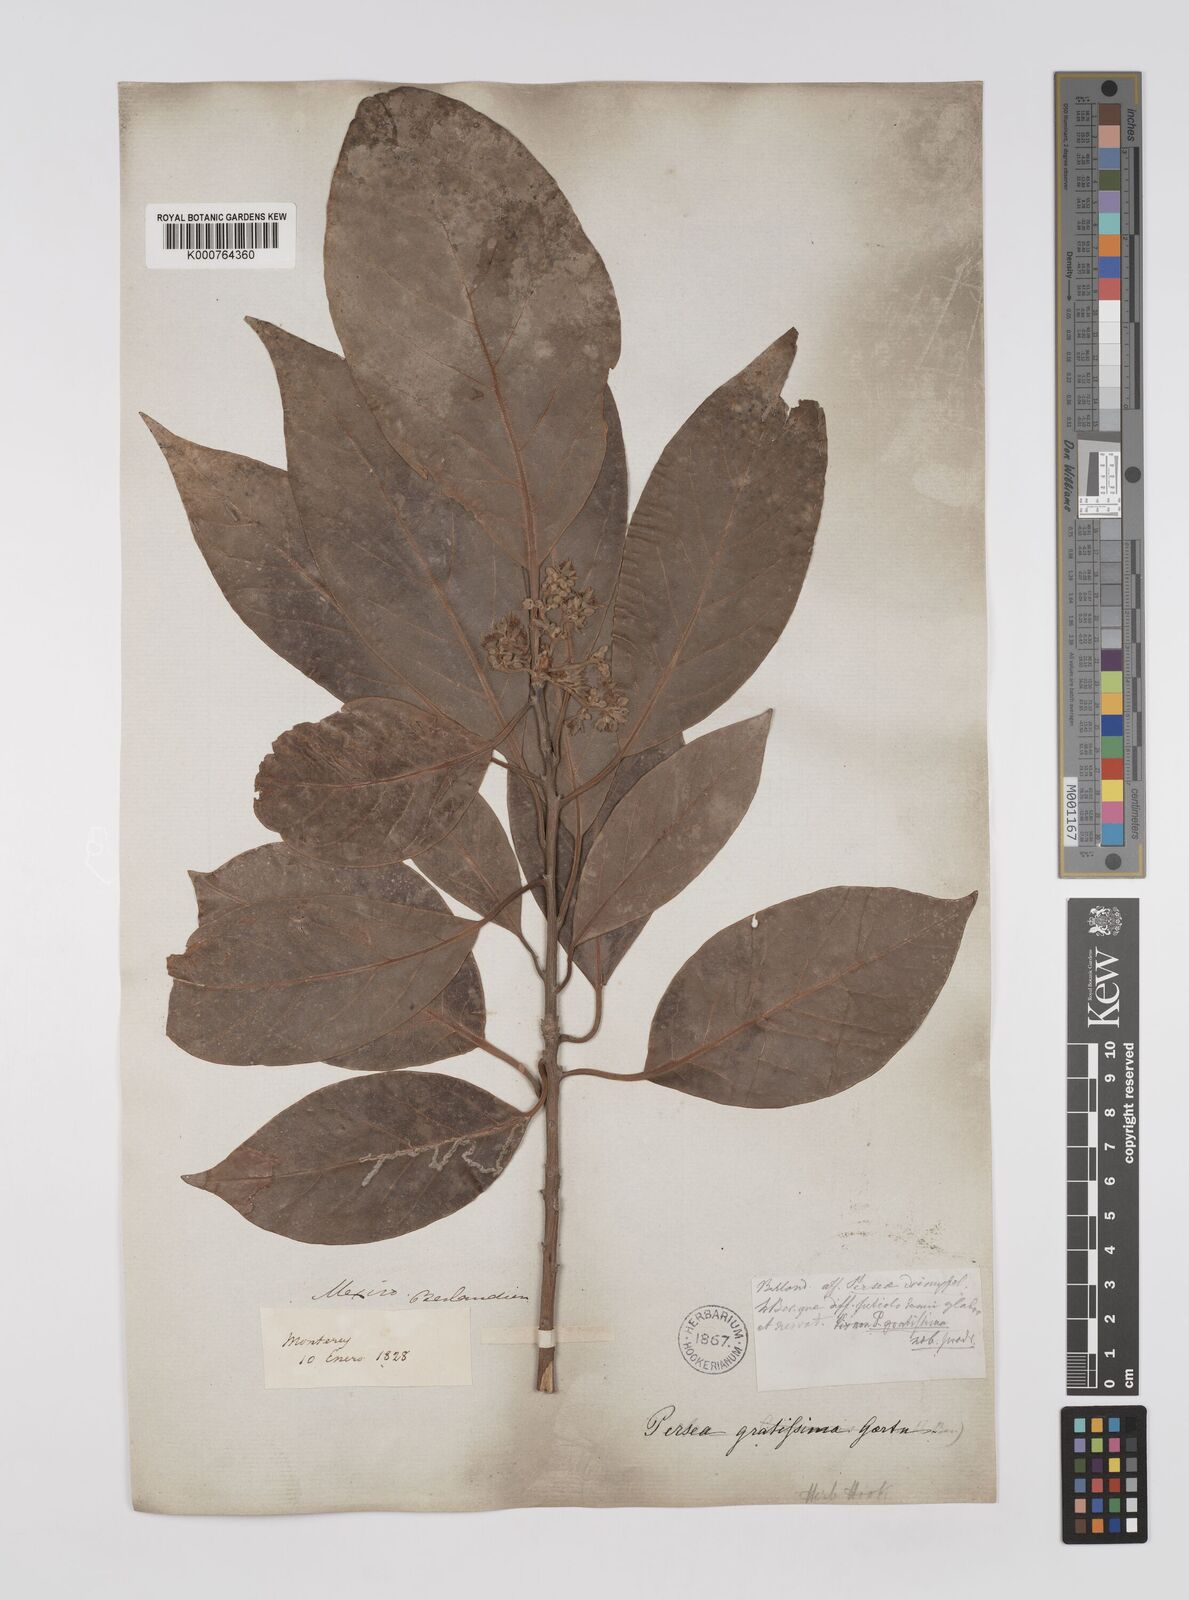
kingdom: Plantae
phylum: Tracheophyta
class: Magnoliopsida
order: Laurales
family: Lauraceae
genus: Persea
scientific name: Persea americana
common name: Avocado
